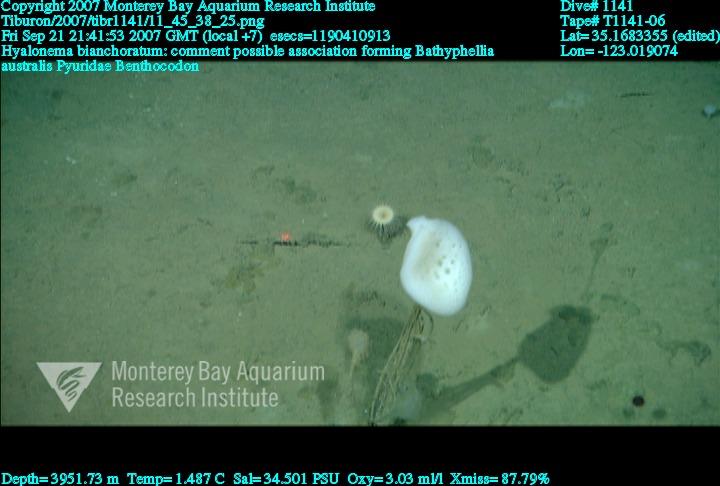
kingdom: Animalia
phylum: Porifera
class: Hexactinellida
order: Amphidiscosida
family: Hyalonematidae
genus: Hyalonema
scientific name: Hyalonema bianchoratum
